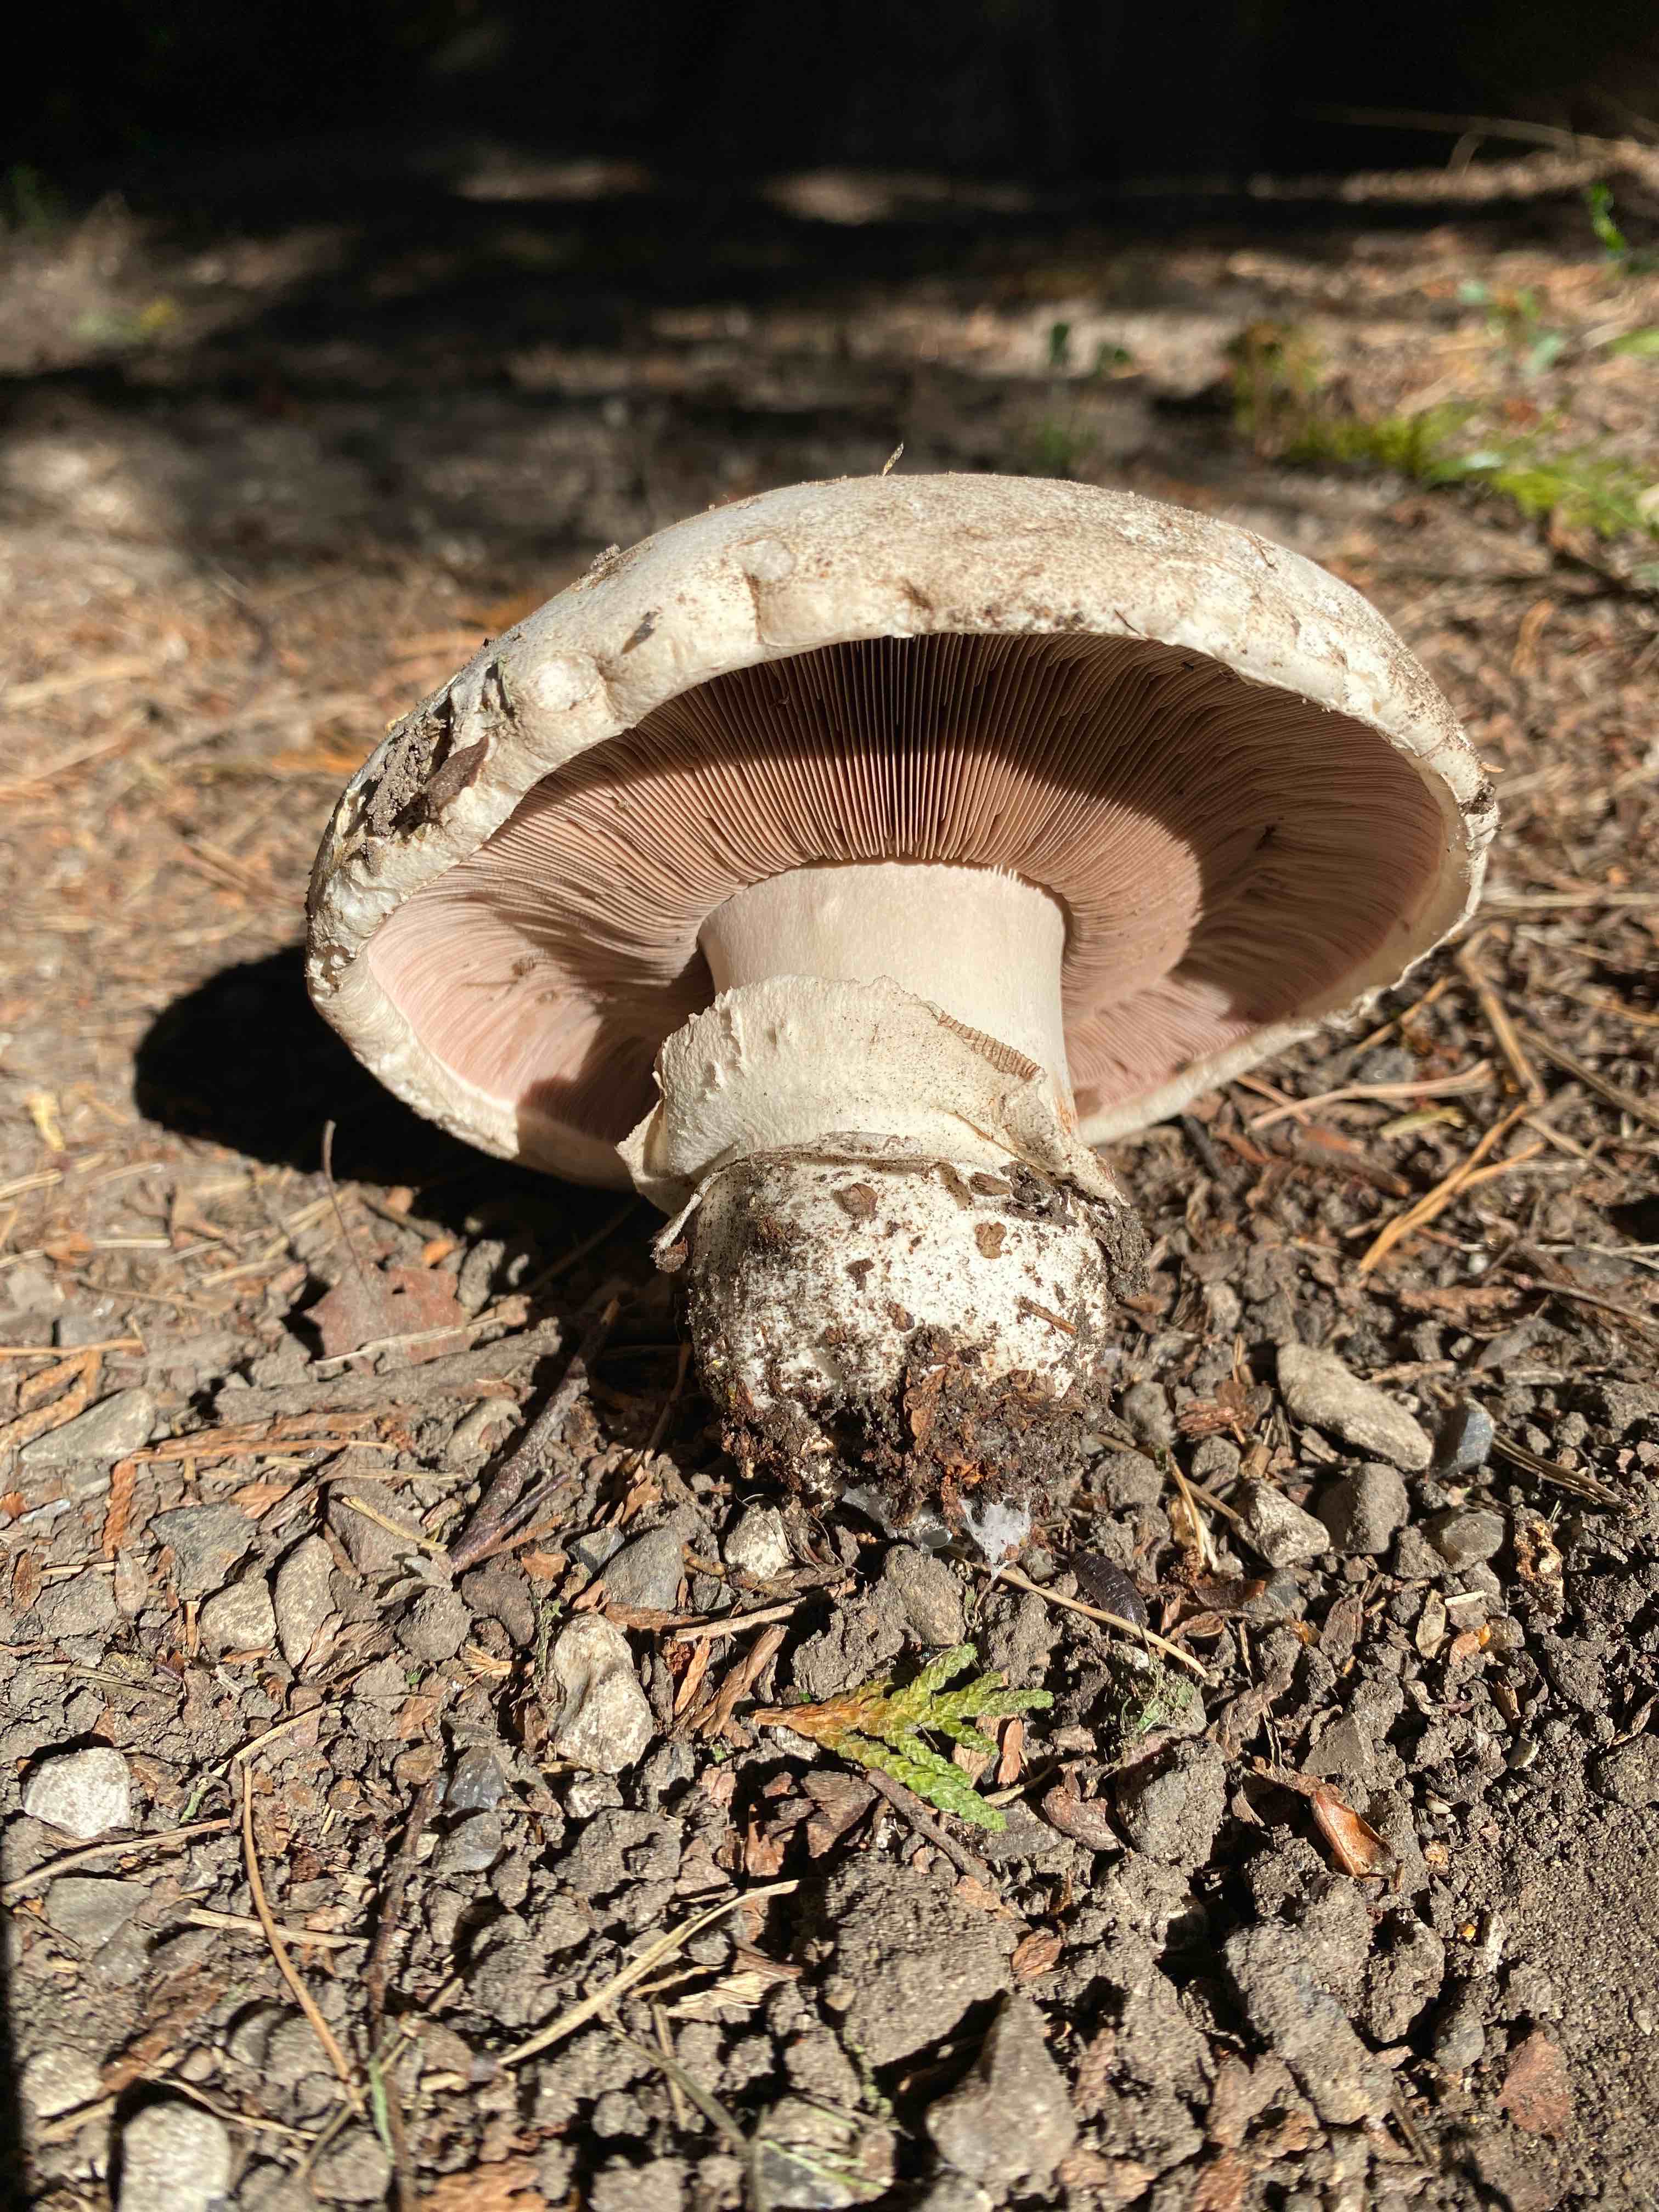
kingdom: Fungi
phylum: Basidiomycota
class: Agaricomycetes
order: Agaricales
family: Agaricaceae
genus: Agaricus
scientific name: Agaricus bitorquis
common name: vej-champignon
